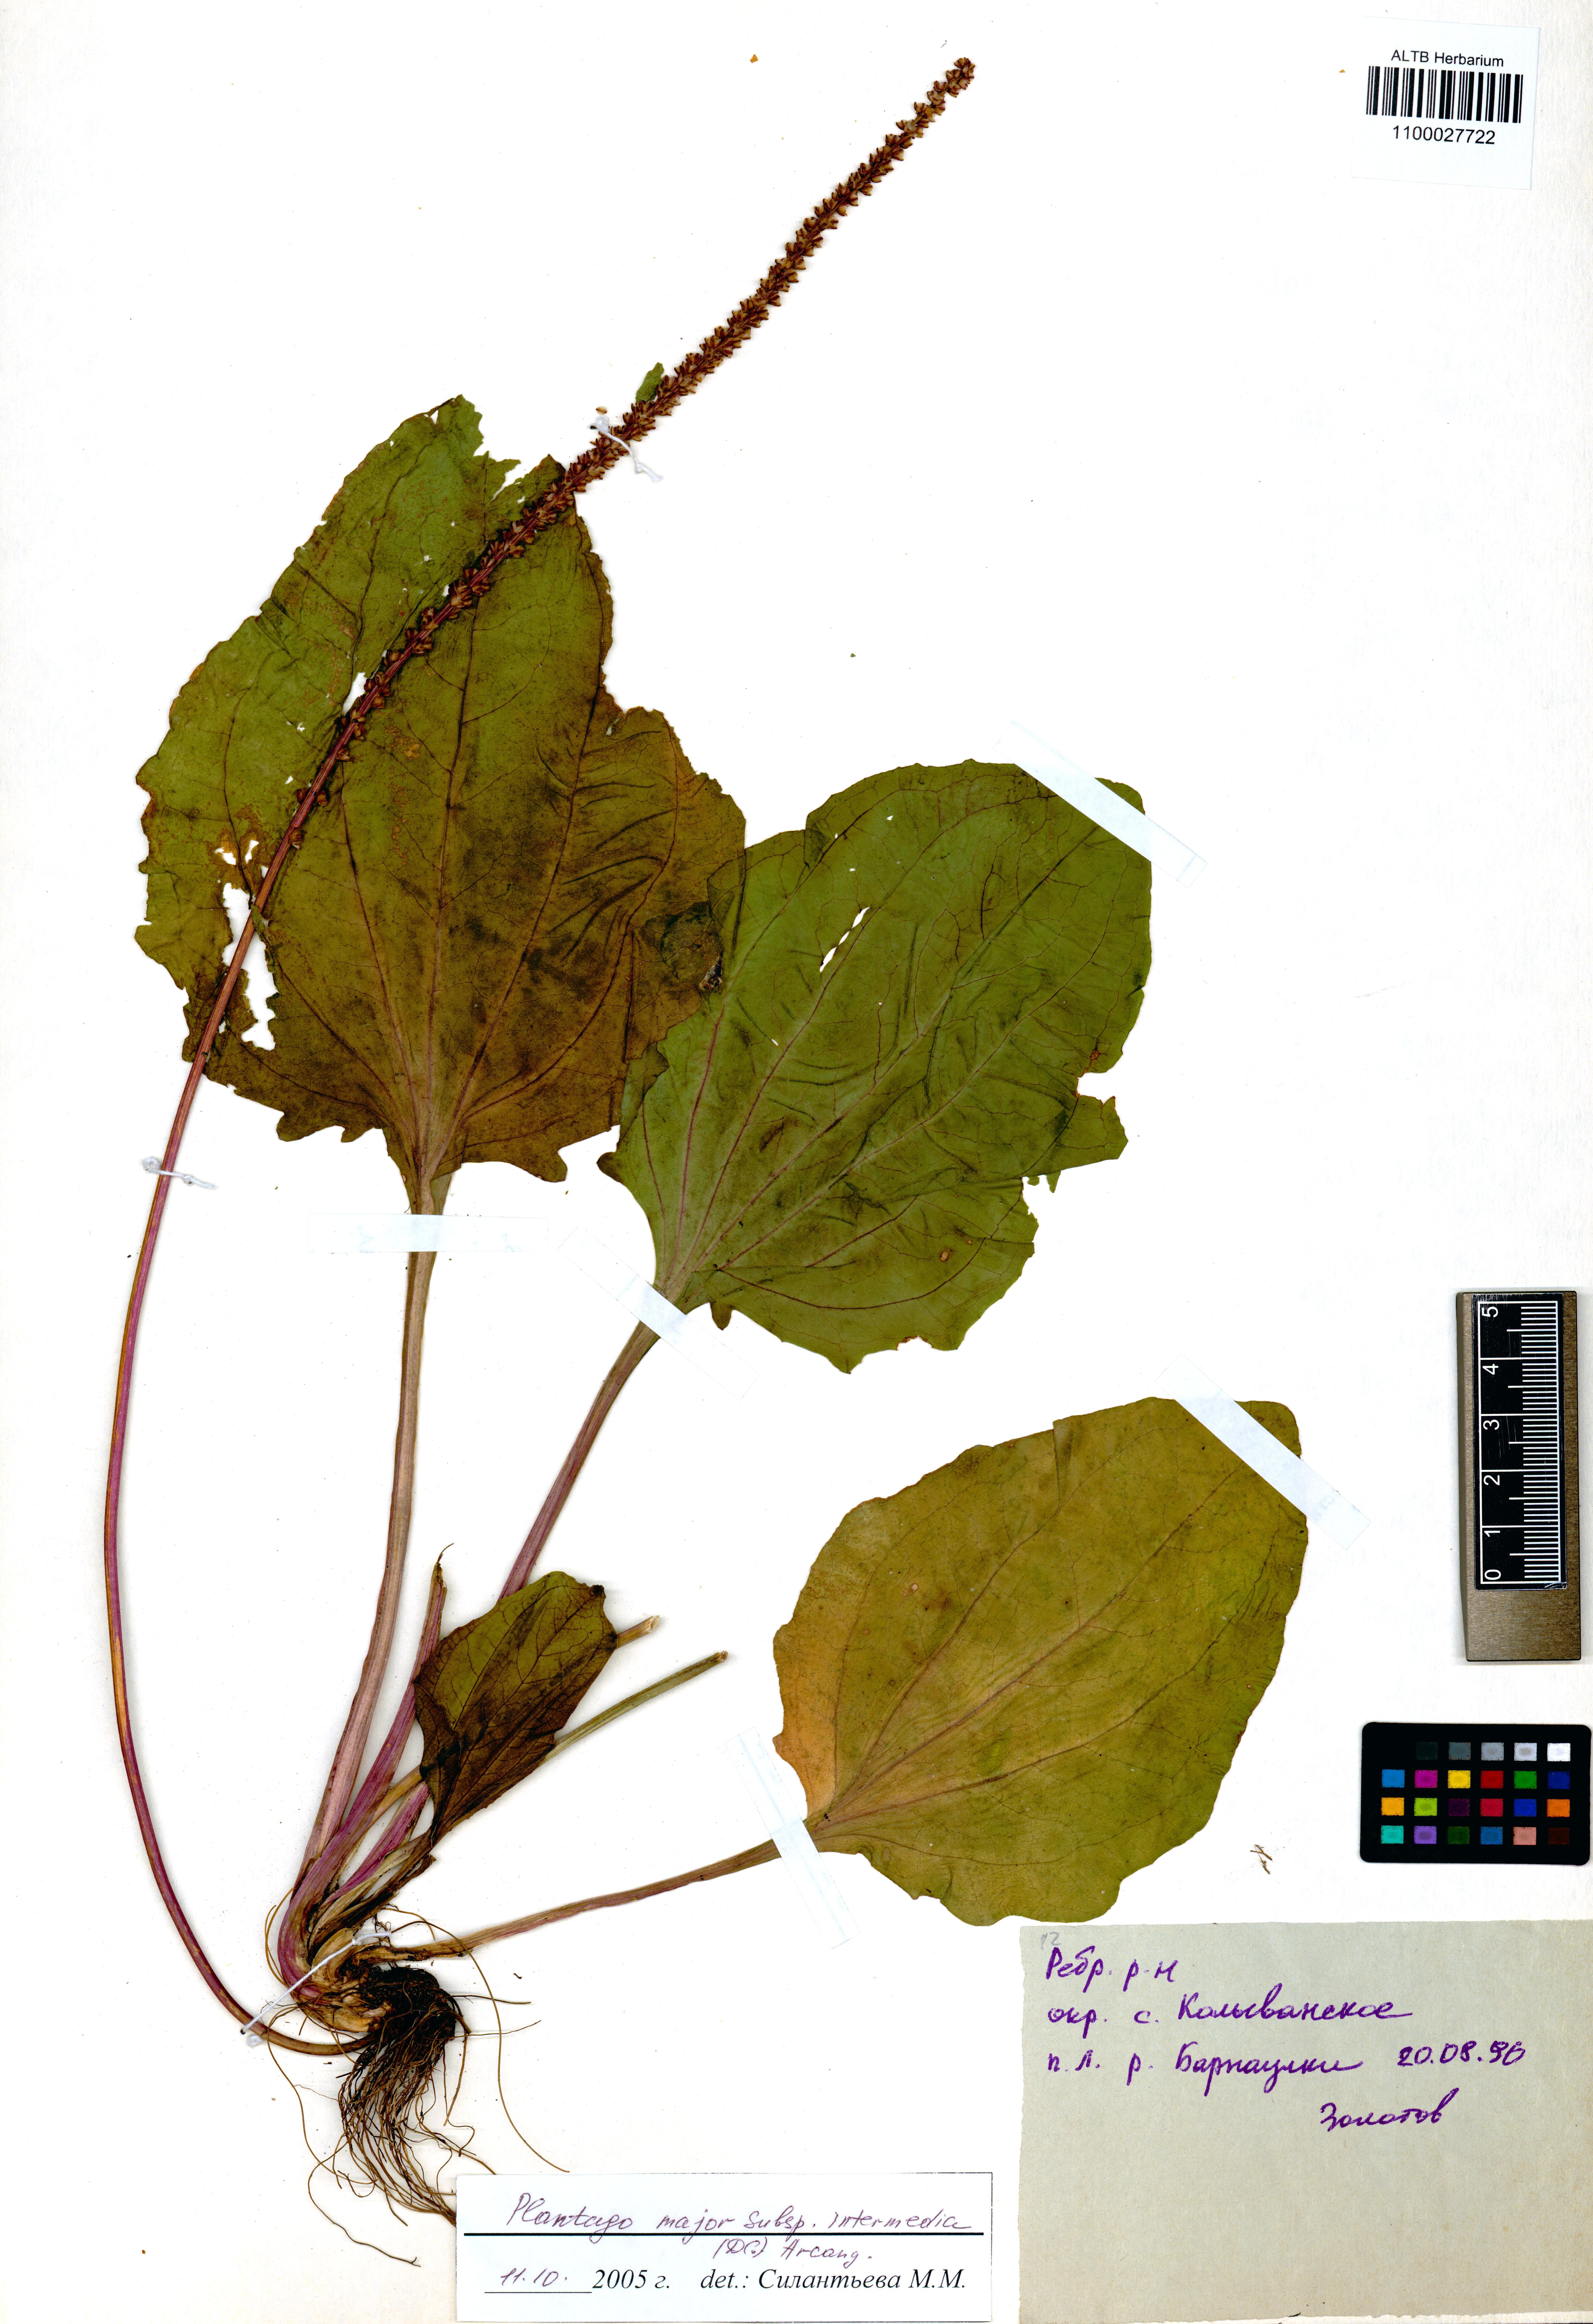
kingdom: Plantae
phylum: Tracheophyta
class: Magnoliopsida
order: Lamiales
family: Plantaginaceae
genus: Plantago
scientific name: Plantago uliginosa
